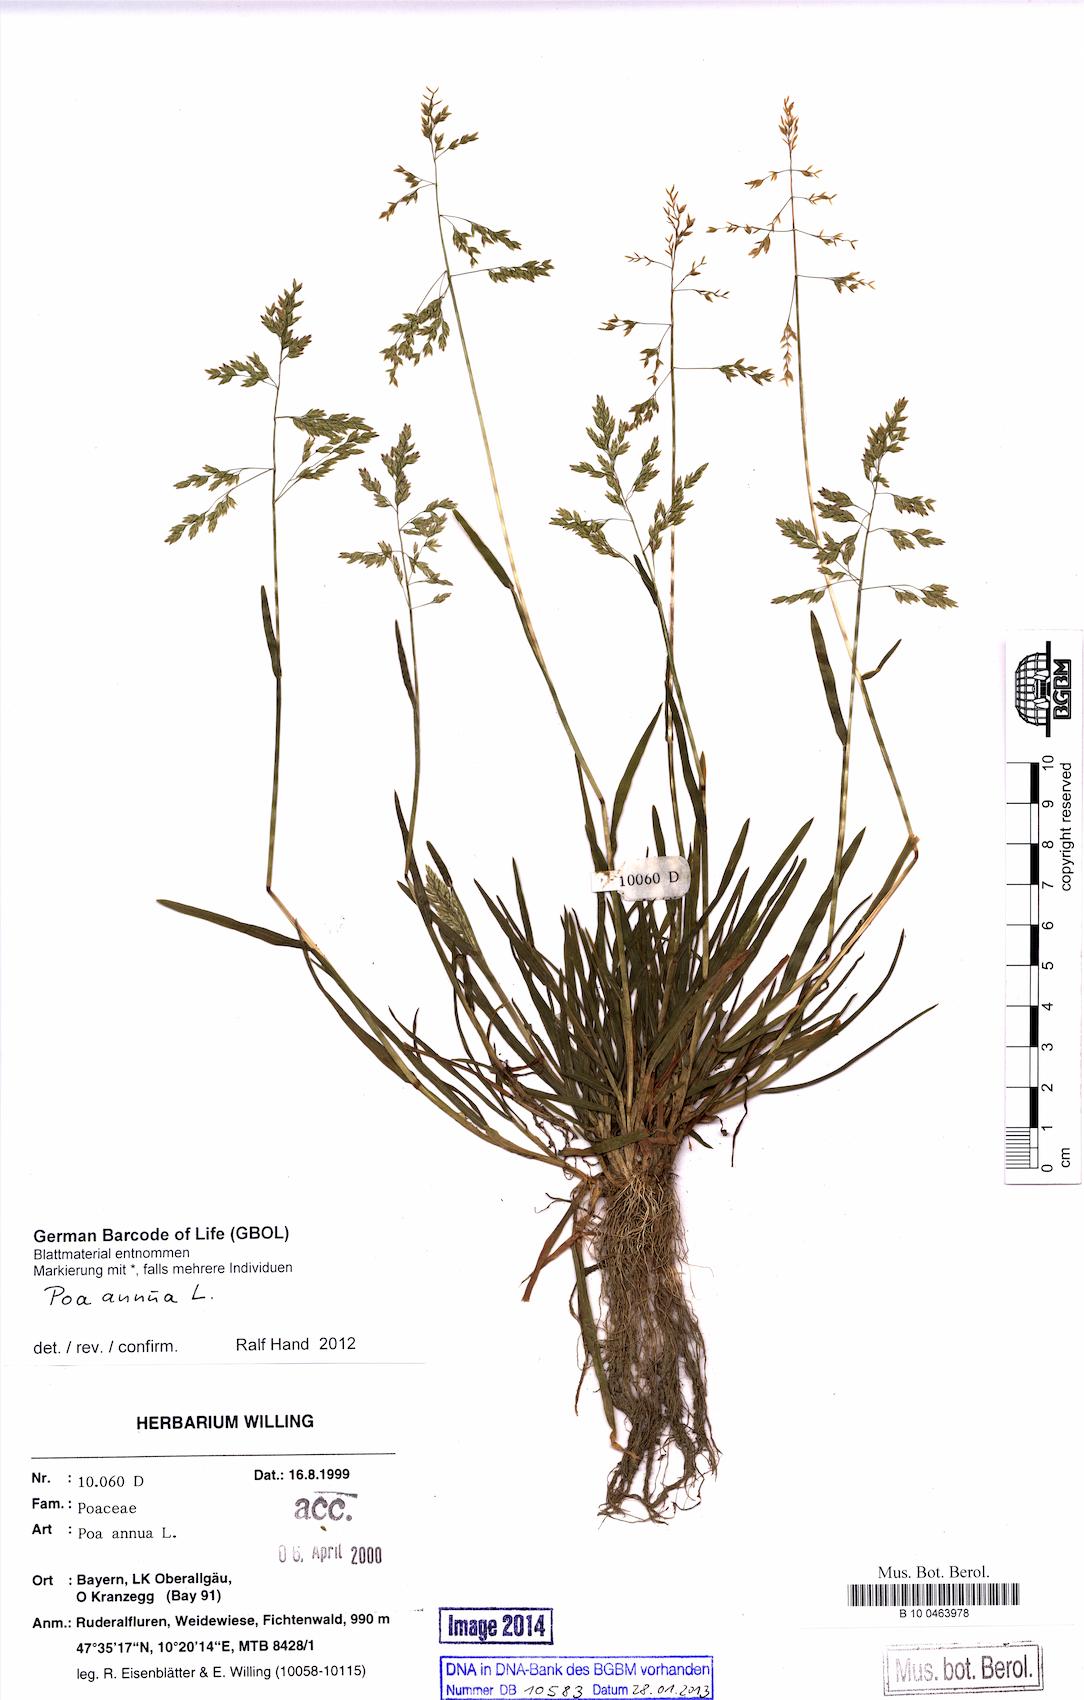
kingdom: Plantae
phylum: Tracheophyta
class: Liliopsida
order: Poales
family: Poaceae
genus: Poa
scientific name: Poa annua
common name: Annual bluegrass
